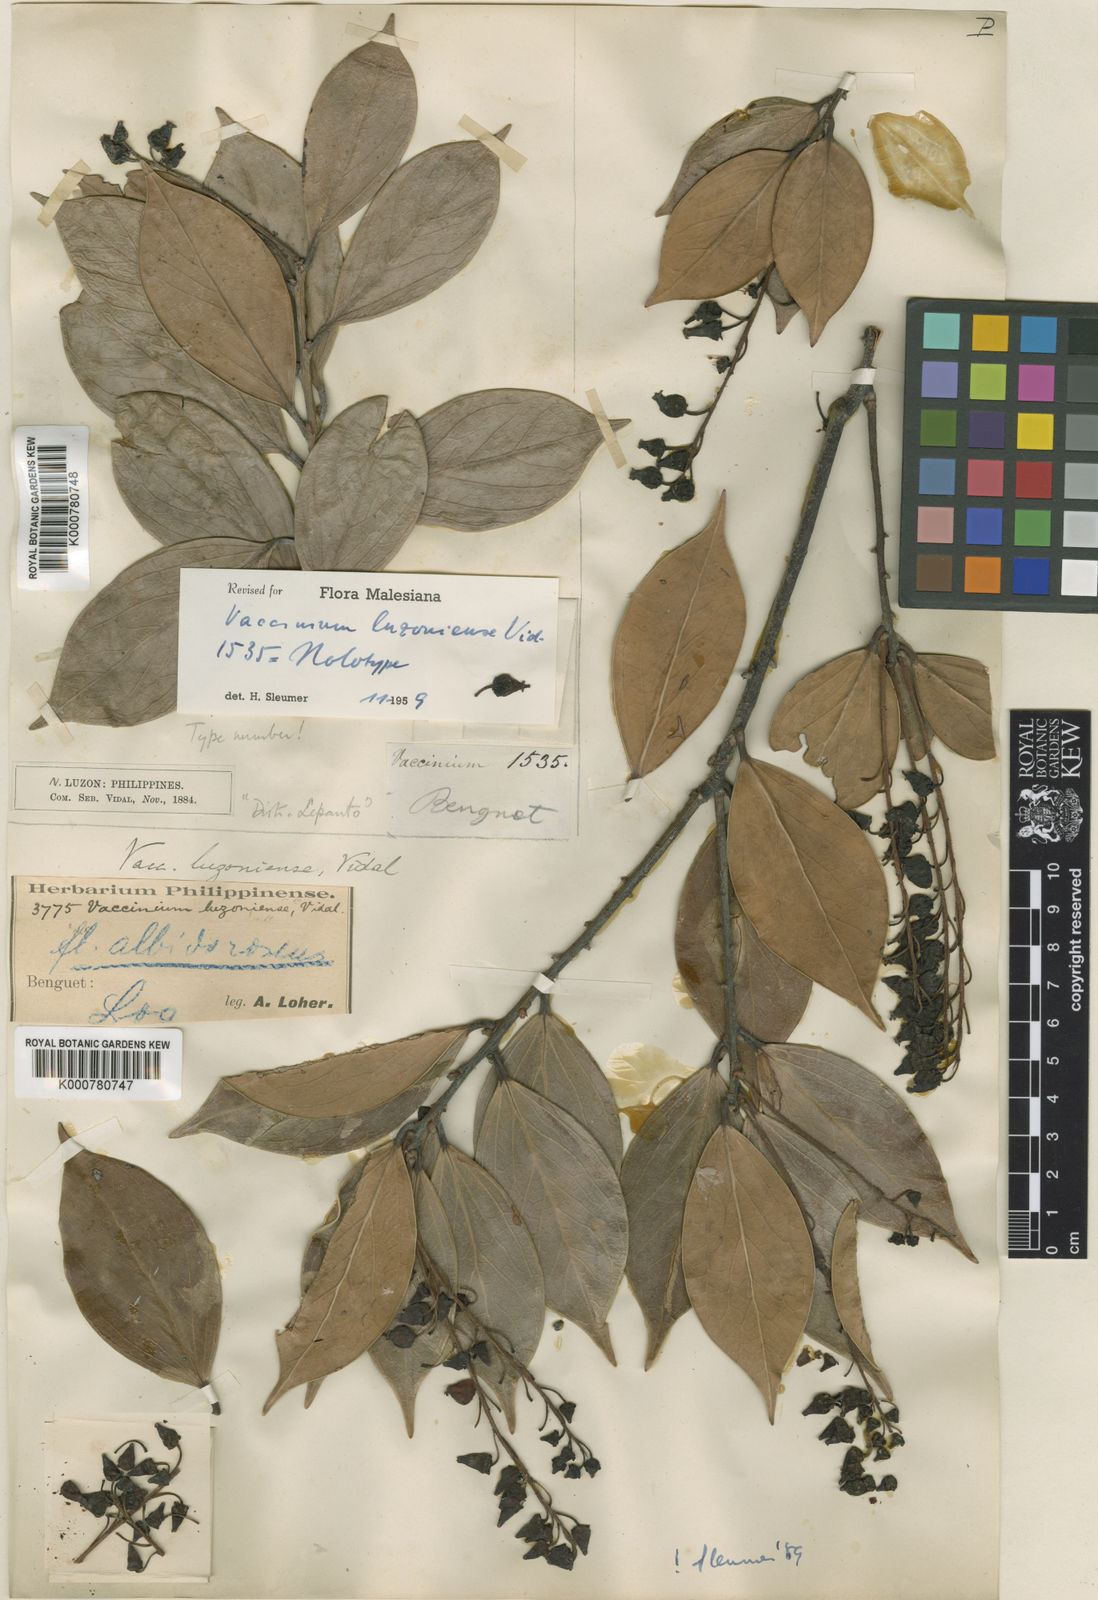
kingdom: Plantae
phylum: Tracheophyta
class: Magnoliopsida
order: Ericales
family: Ericaceae
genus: Vaccinium
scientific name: Vaccinium luzoniense
